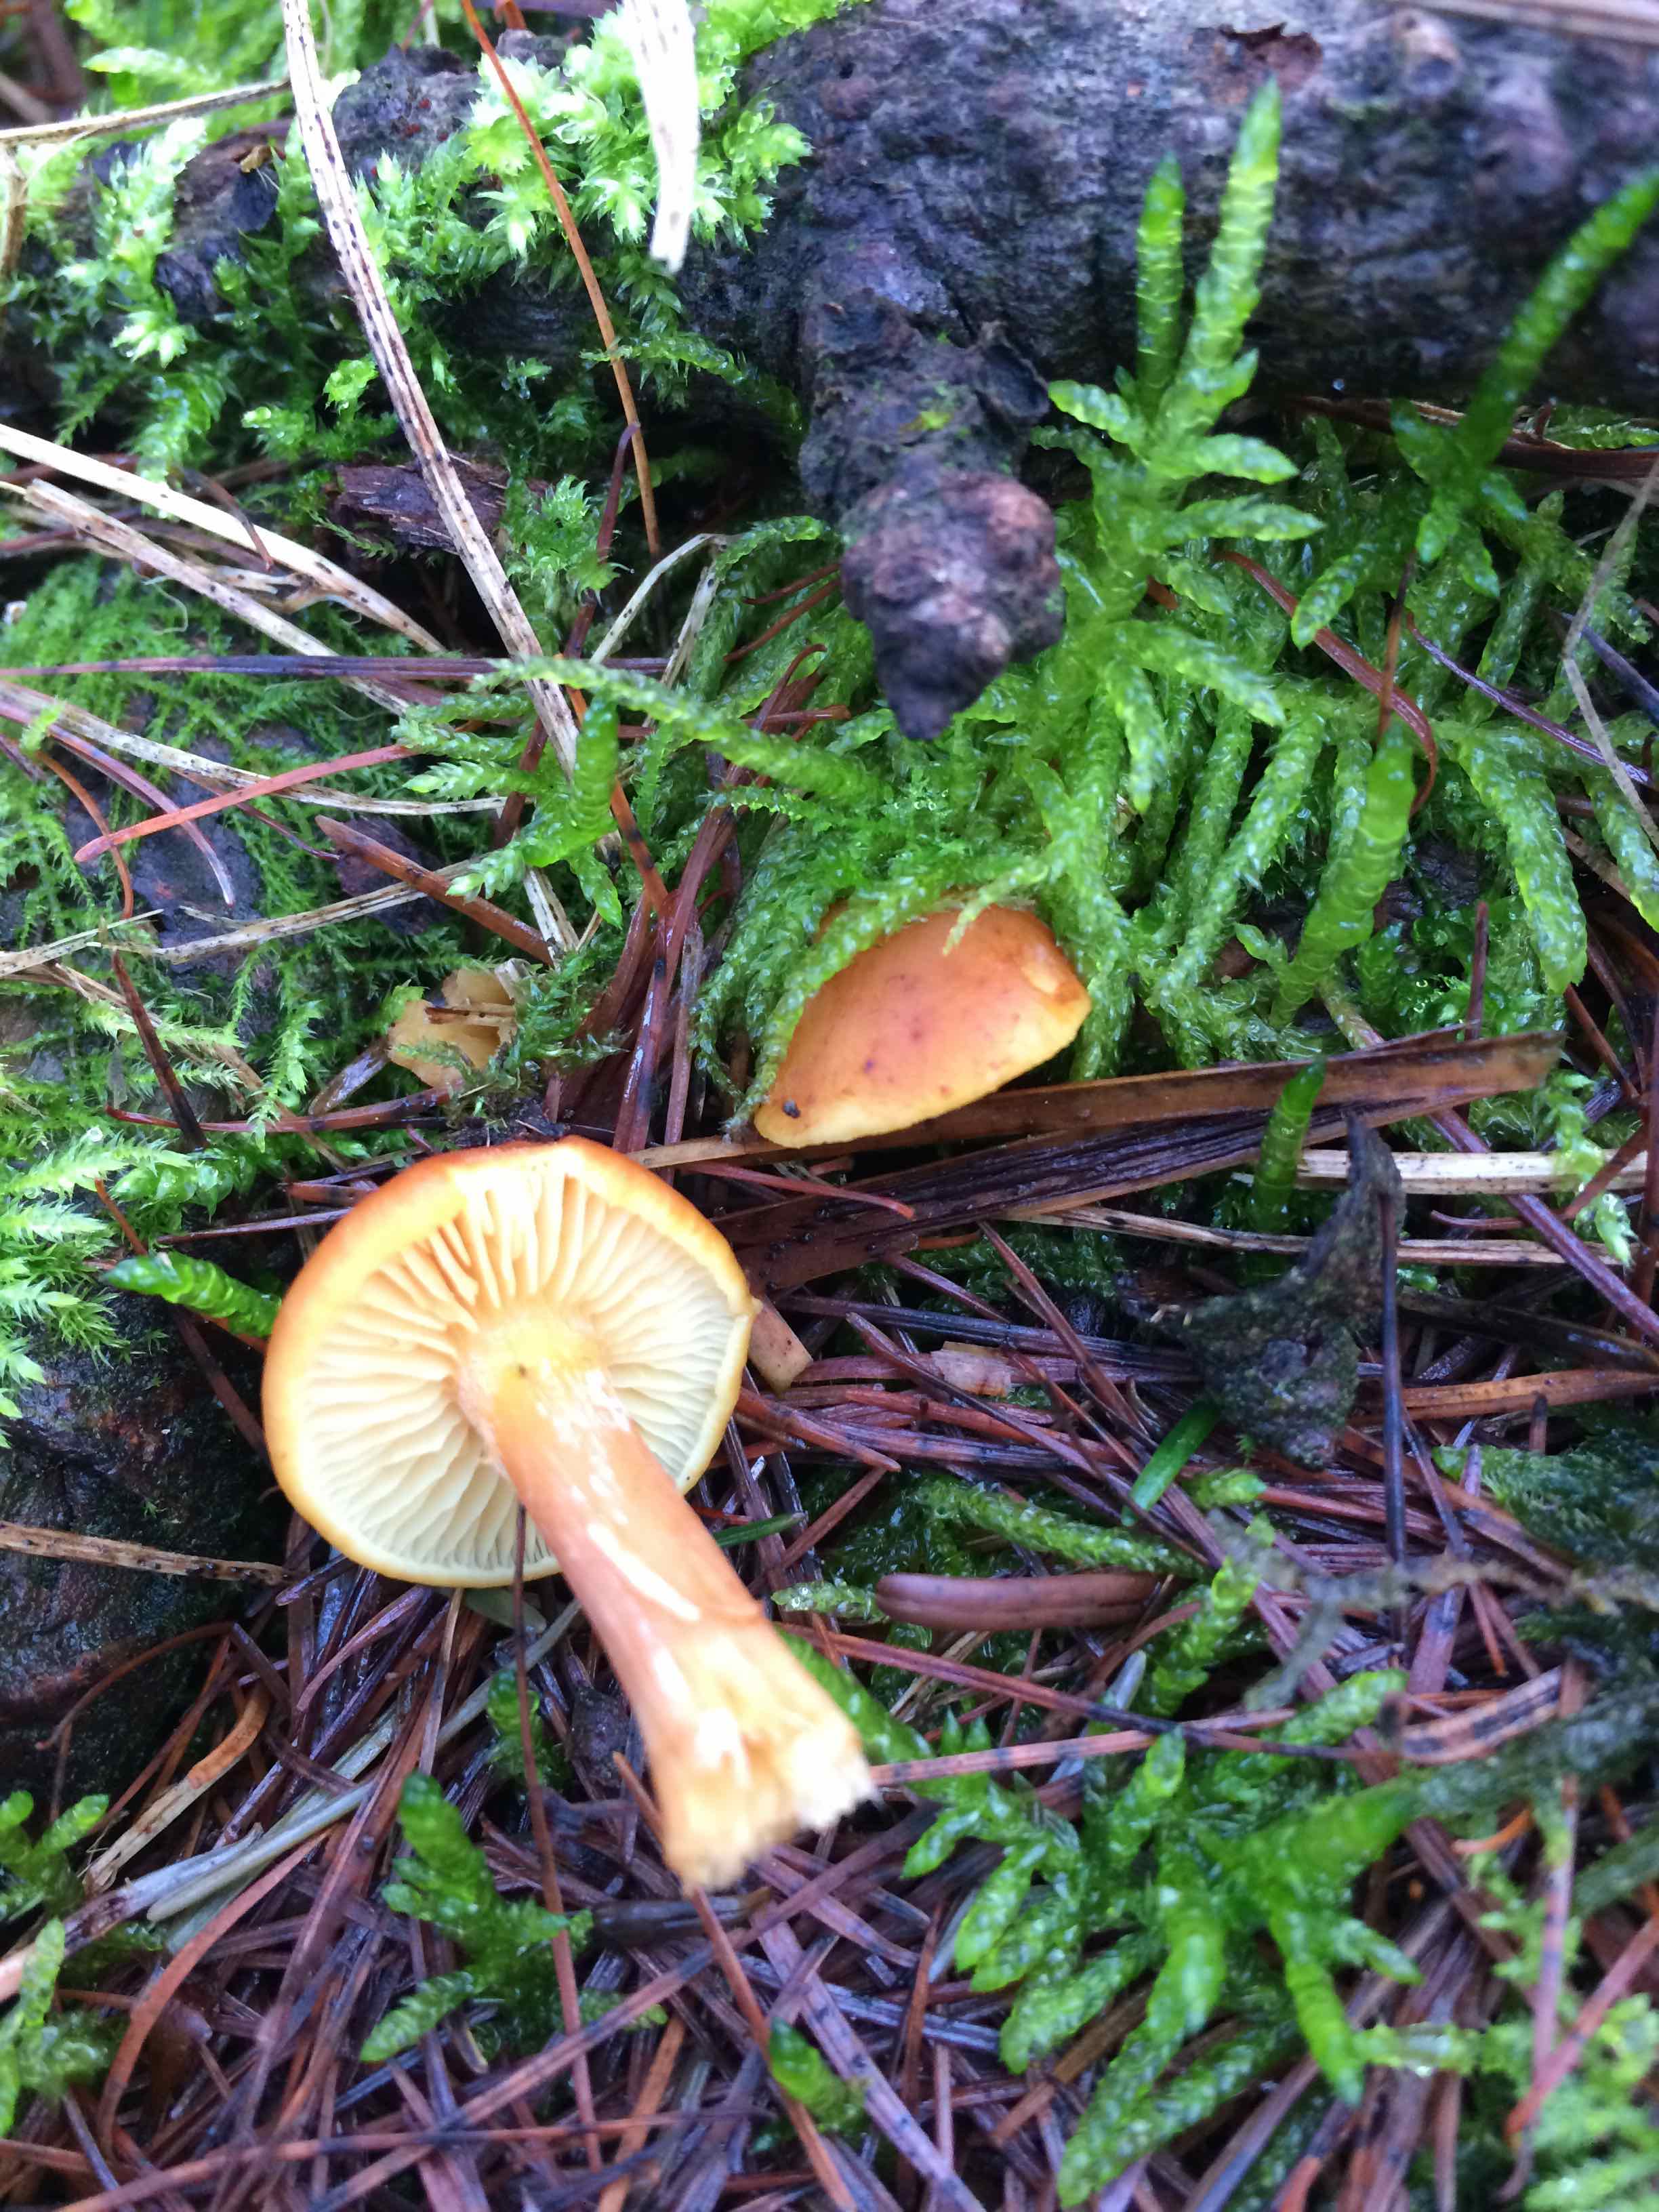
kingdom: Fungi
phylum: Basidiomycota
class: Agaricomycetes
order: Agaricales
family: Hymenogastraceae
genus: Gymnopilus
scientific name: Gymnopilus
